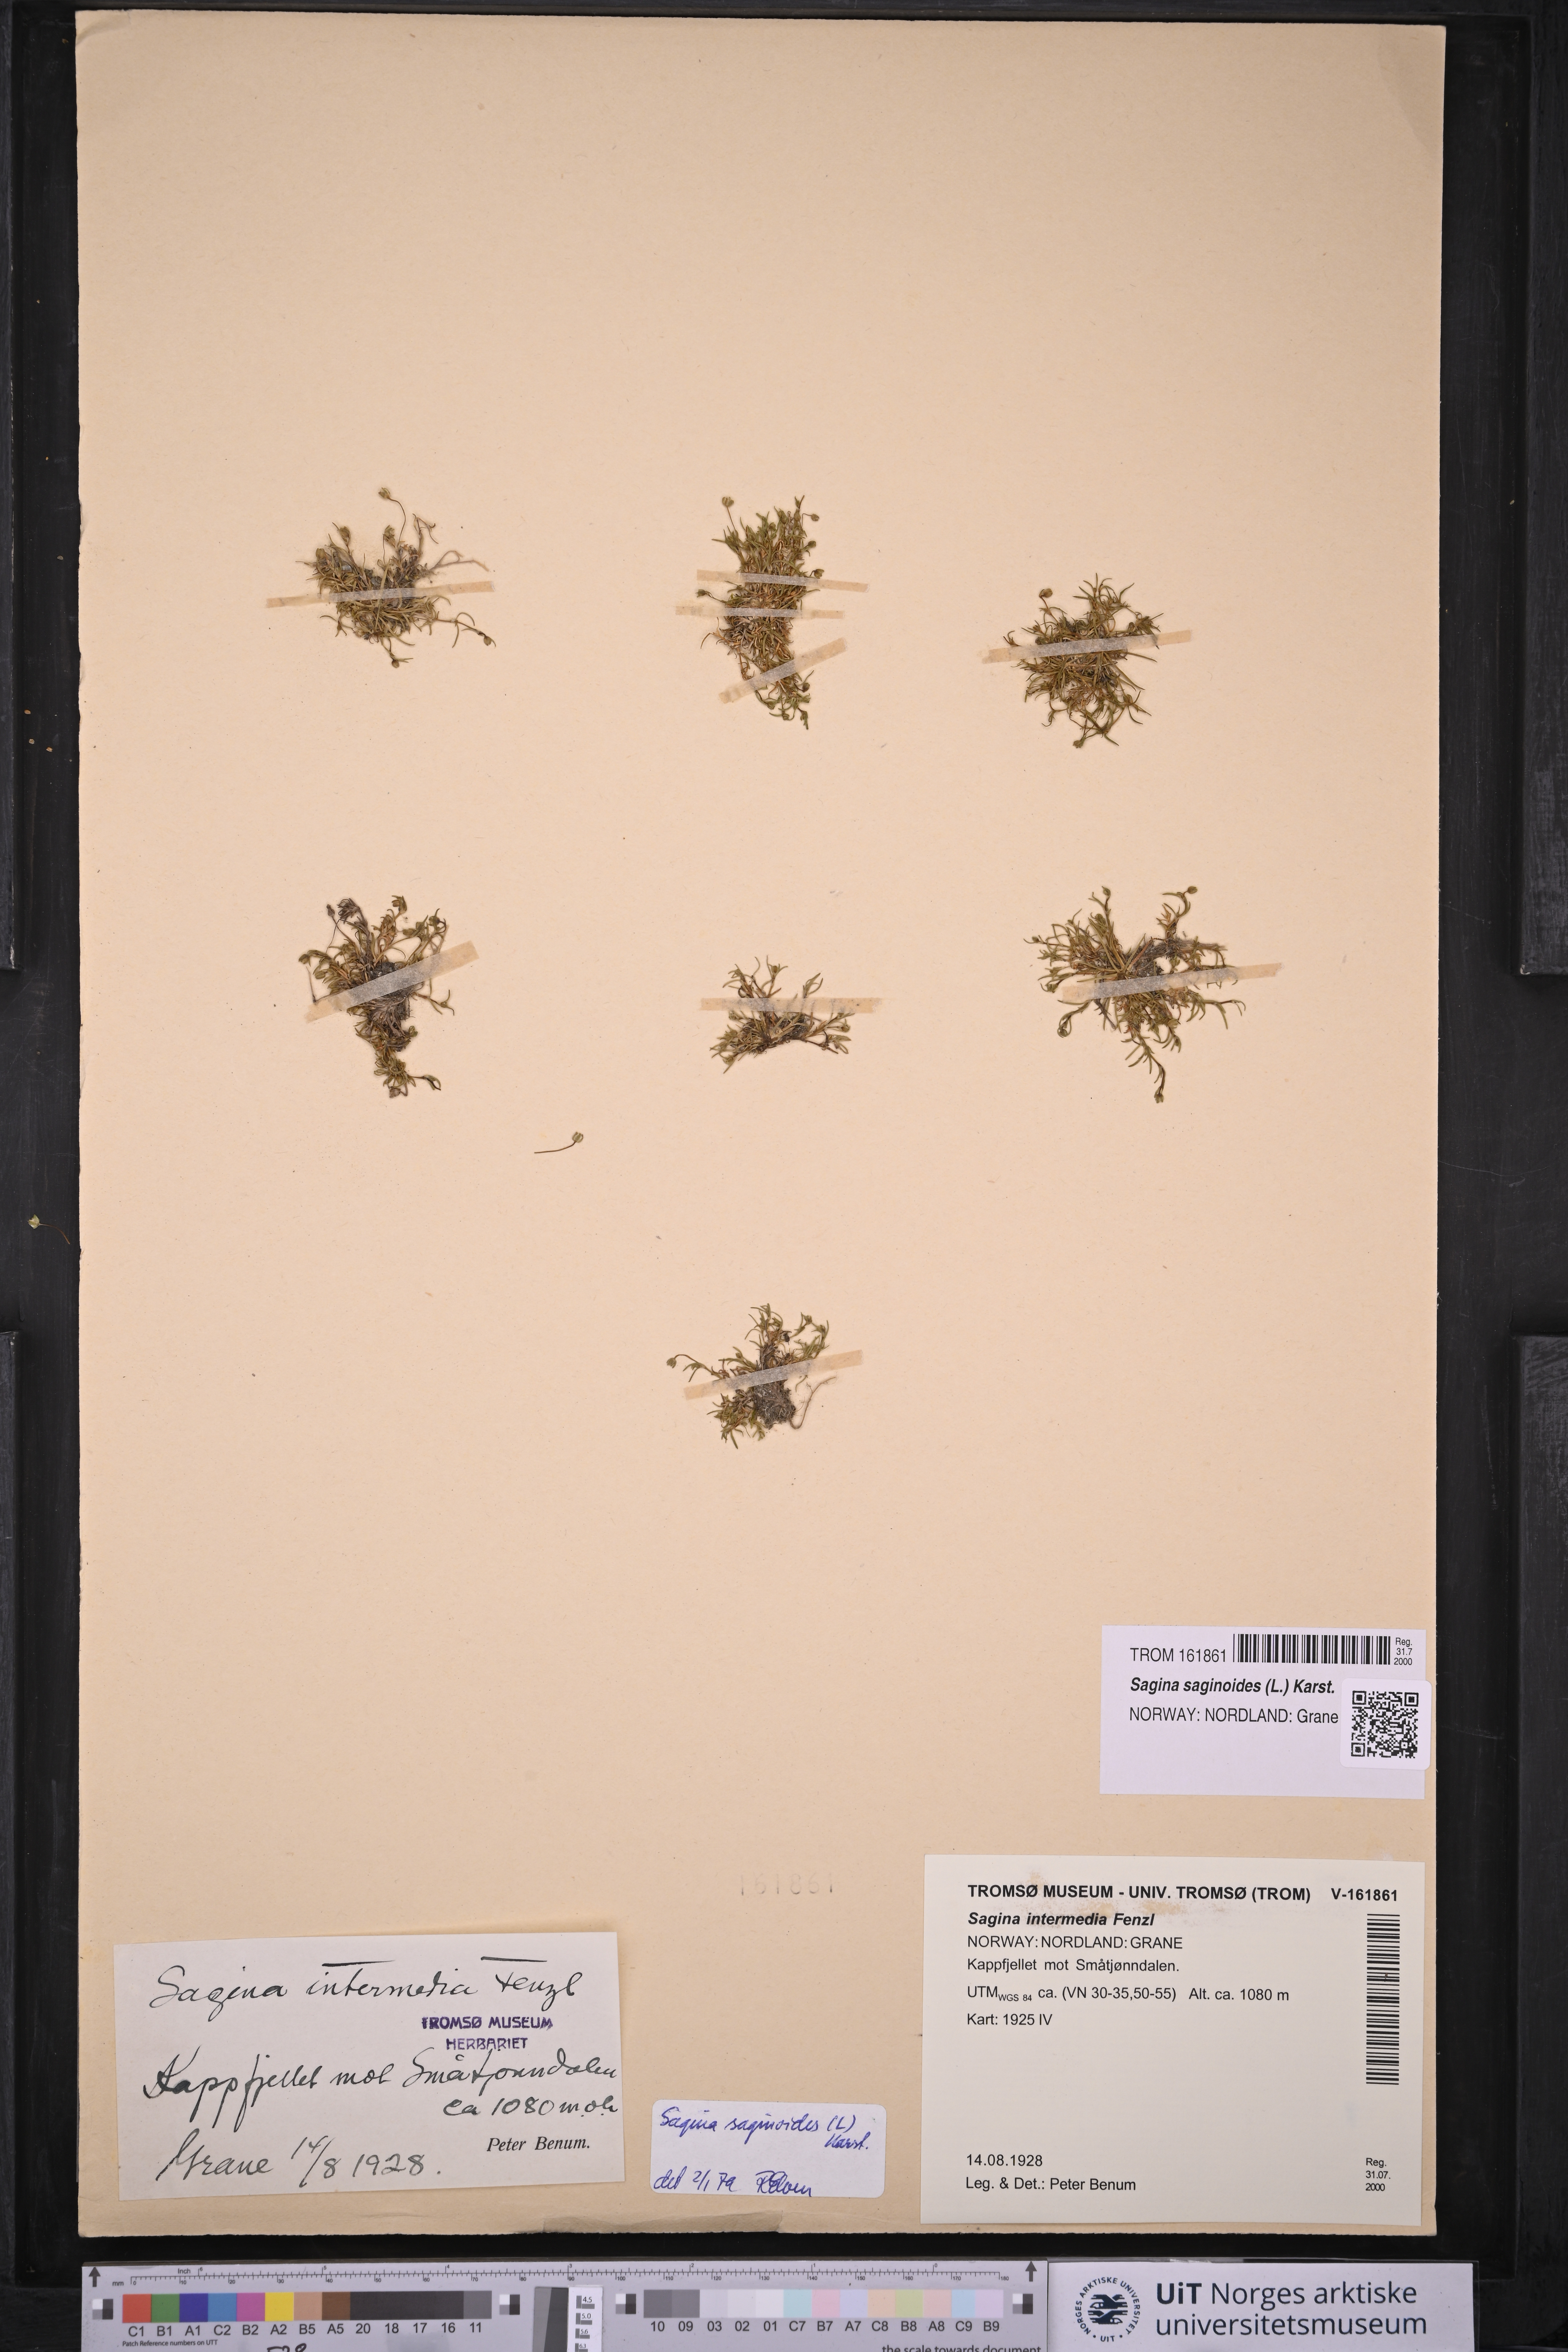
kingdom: Plantae
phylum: Tracheophyta
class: Magnoliopsida
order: Caryophyllales
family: Caryophyllaceae
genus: Sagina
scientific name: Sagina saginoides
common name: Alpine pearlwort
